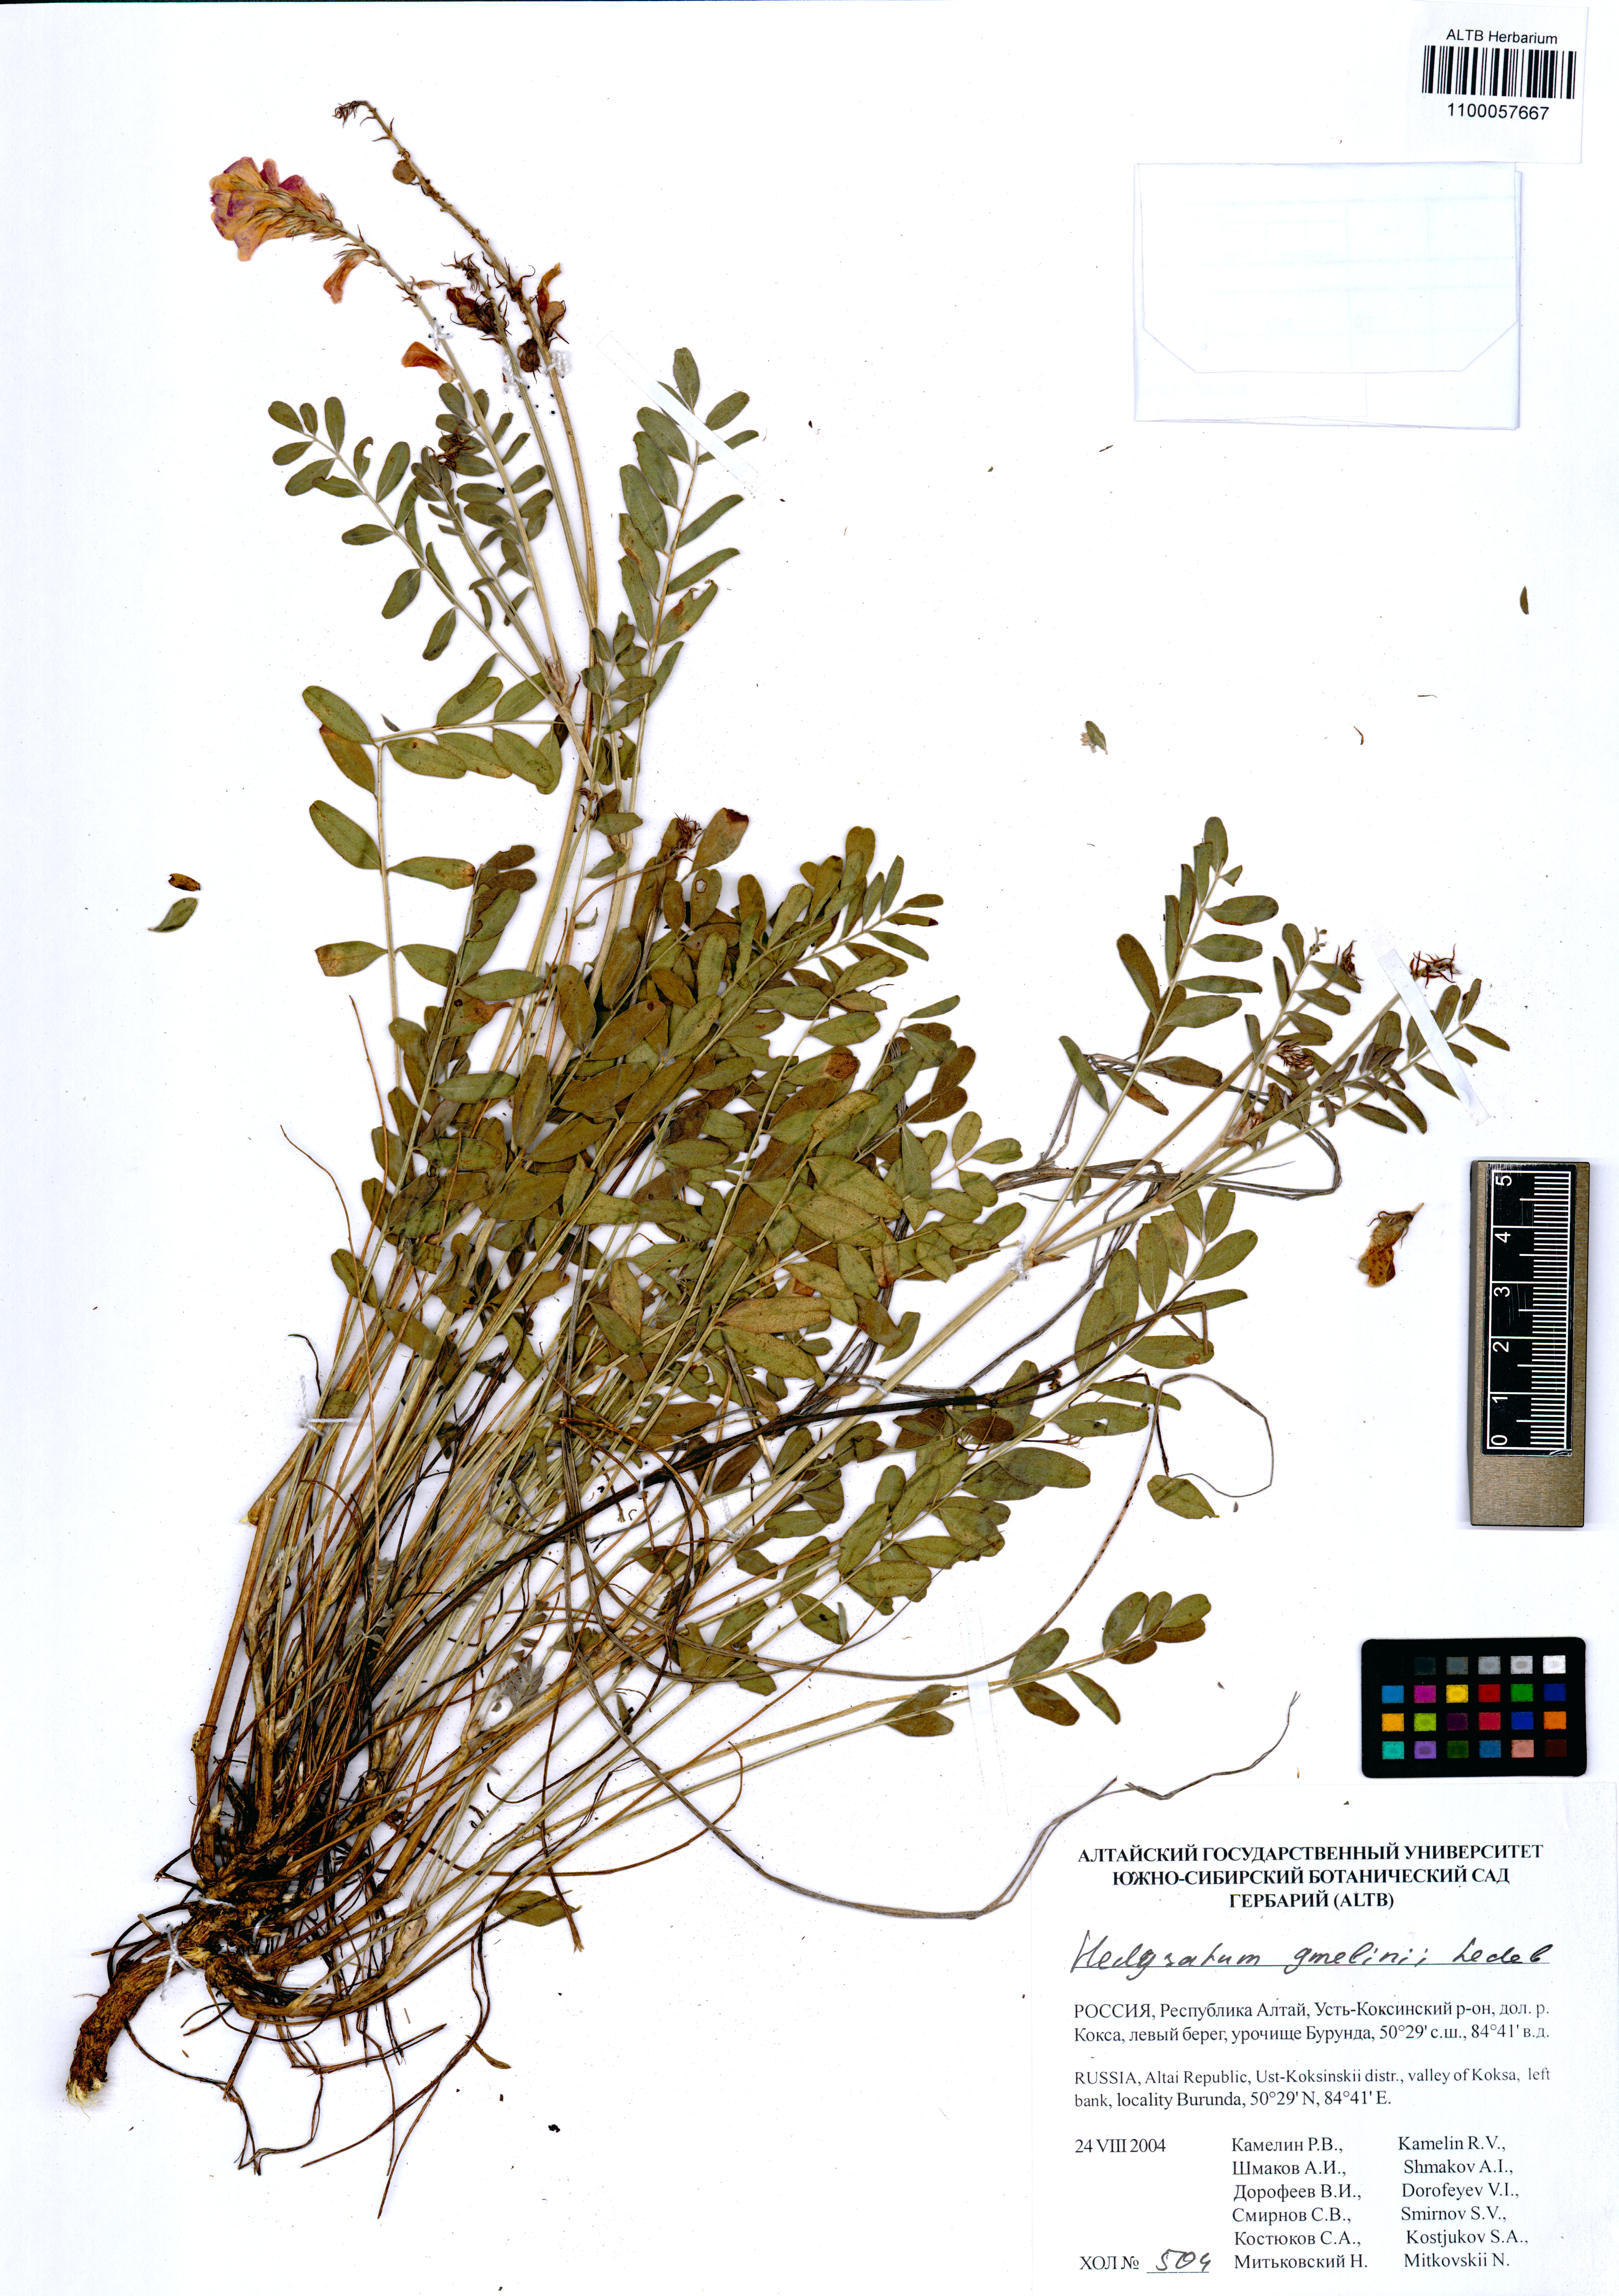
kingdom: Plantae
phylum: Tracheophyta
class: Magnoliopsida
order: Fabales
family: Fabaceae
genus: Hedysarum
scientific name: Hedysarum gmelinii
